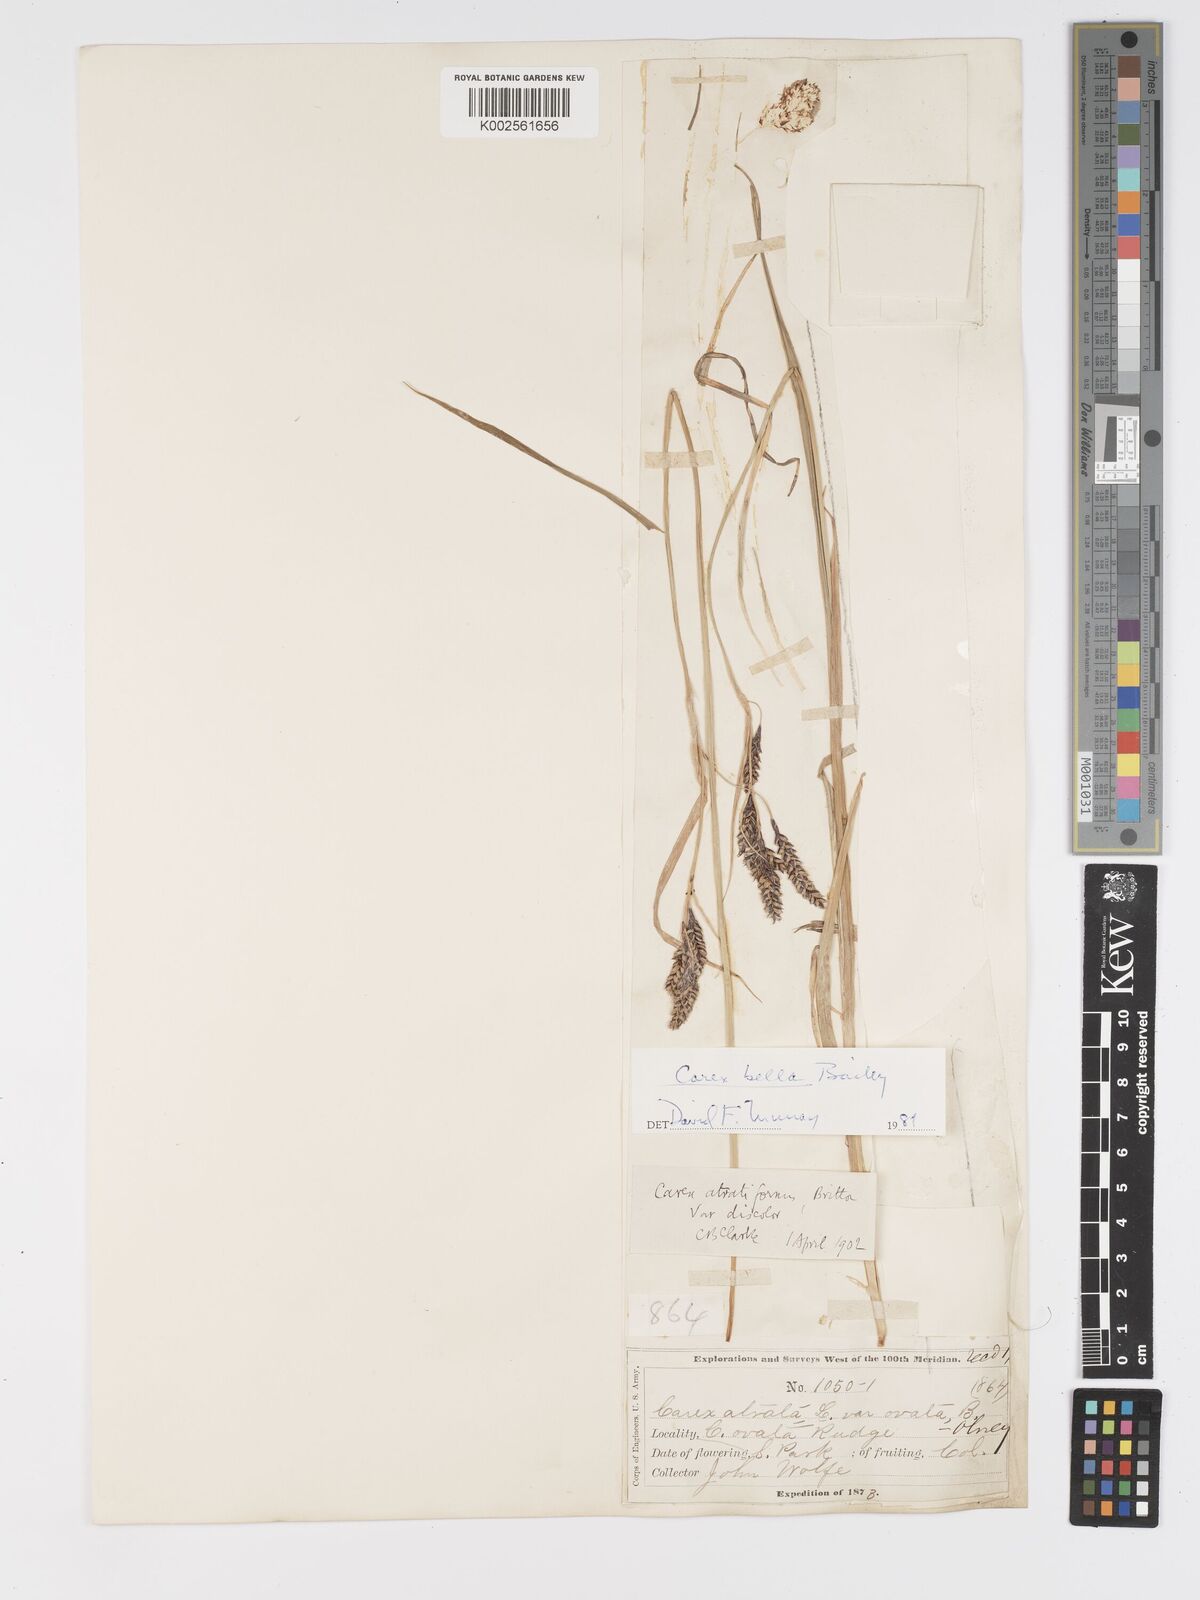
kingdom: Plantae
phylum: Tracheophyta
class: Liliopsida
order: Poales
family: Cyperaceae
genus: Carex
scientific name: Carex bella
